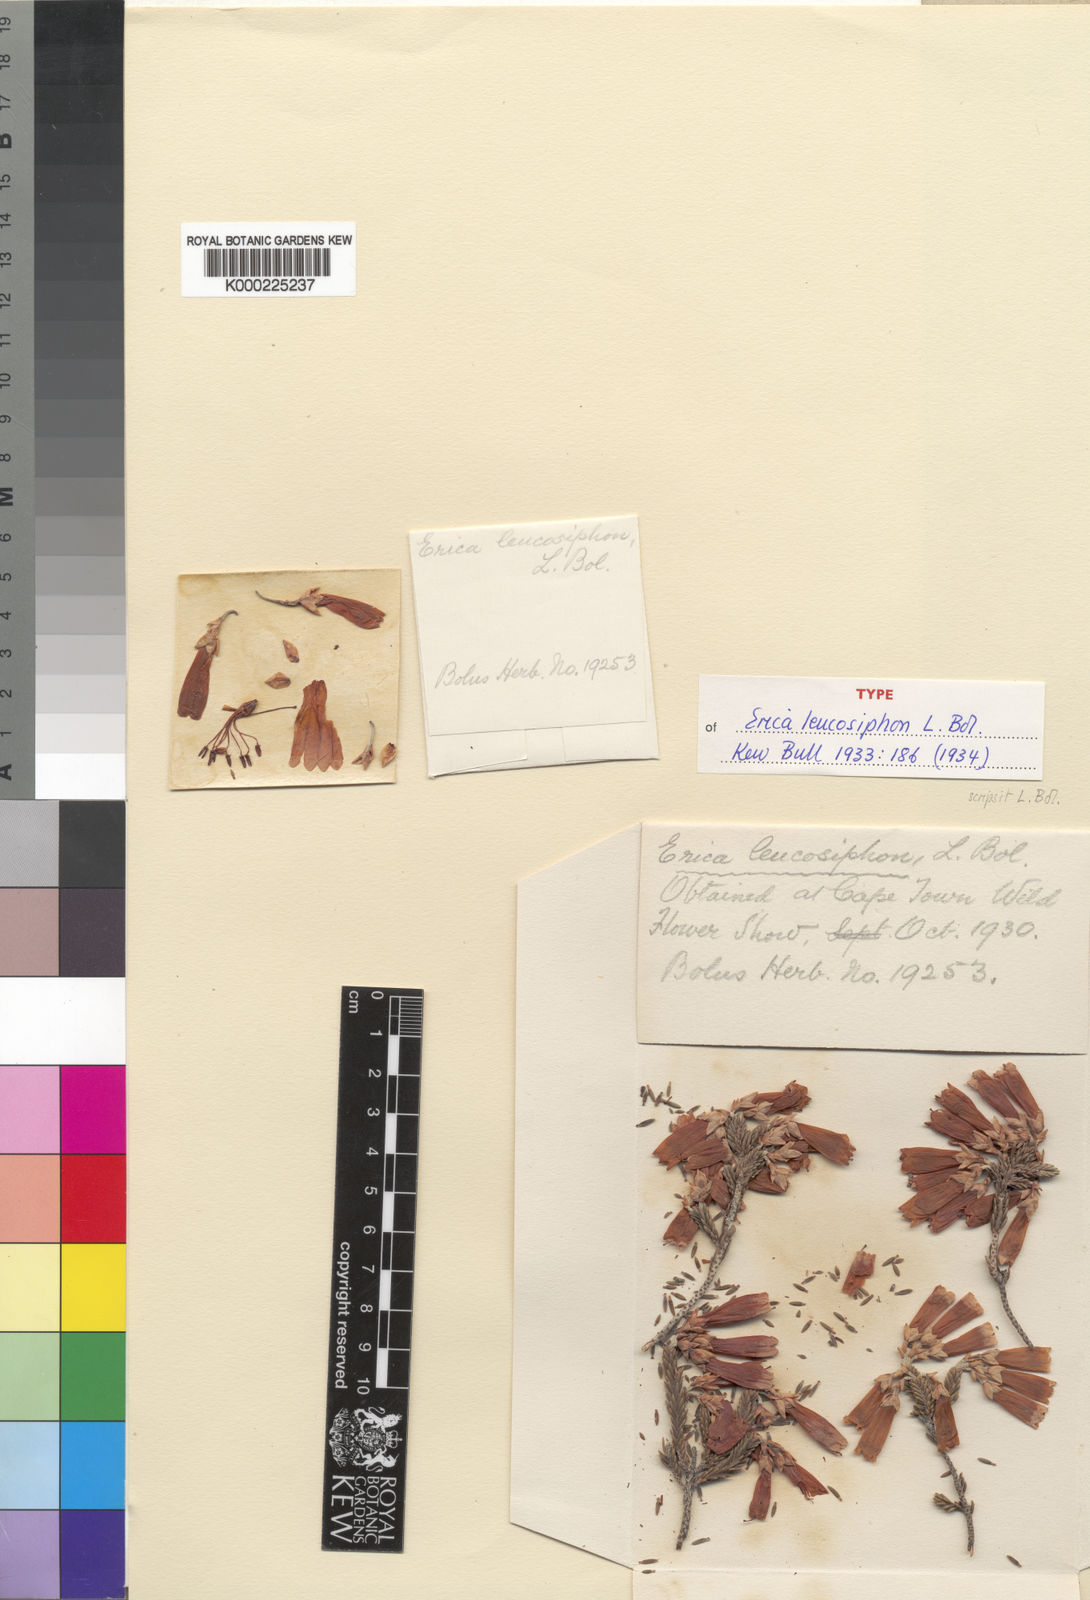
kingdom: Plantae
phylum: Tracheophyta
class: Magnoliopsida
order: Ericales
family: Ericaceae
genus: Erica
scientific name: Erica leucosiphon
